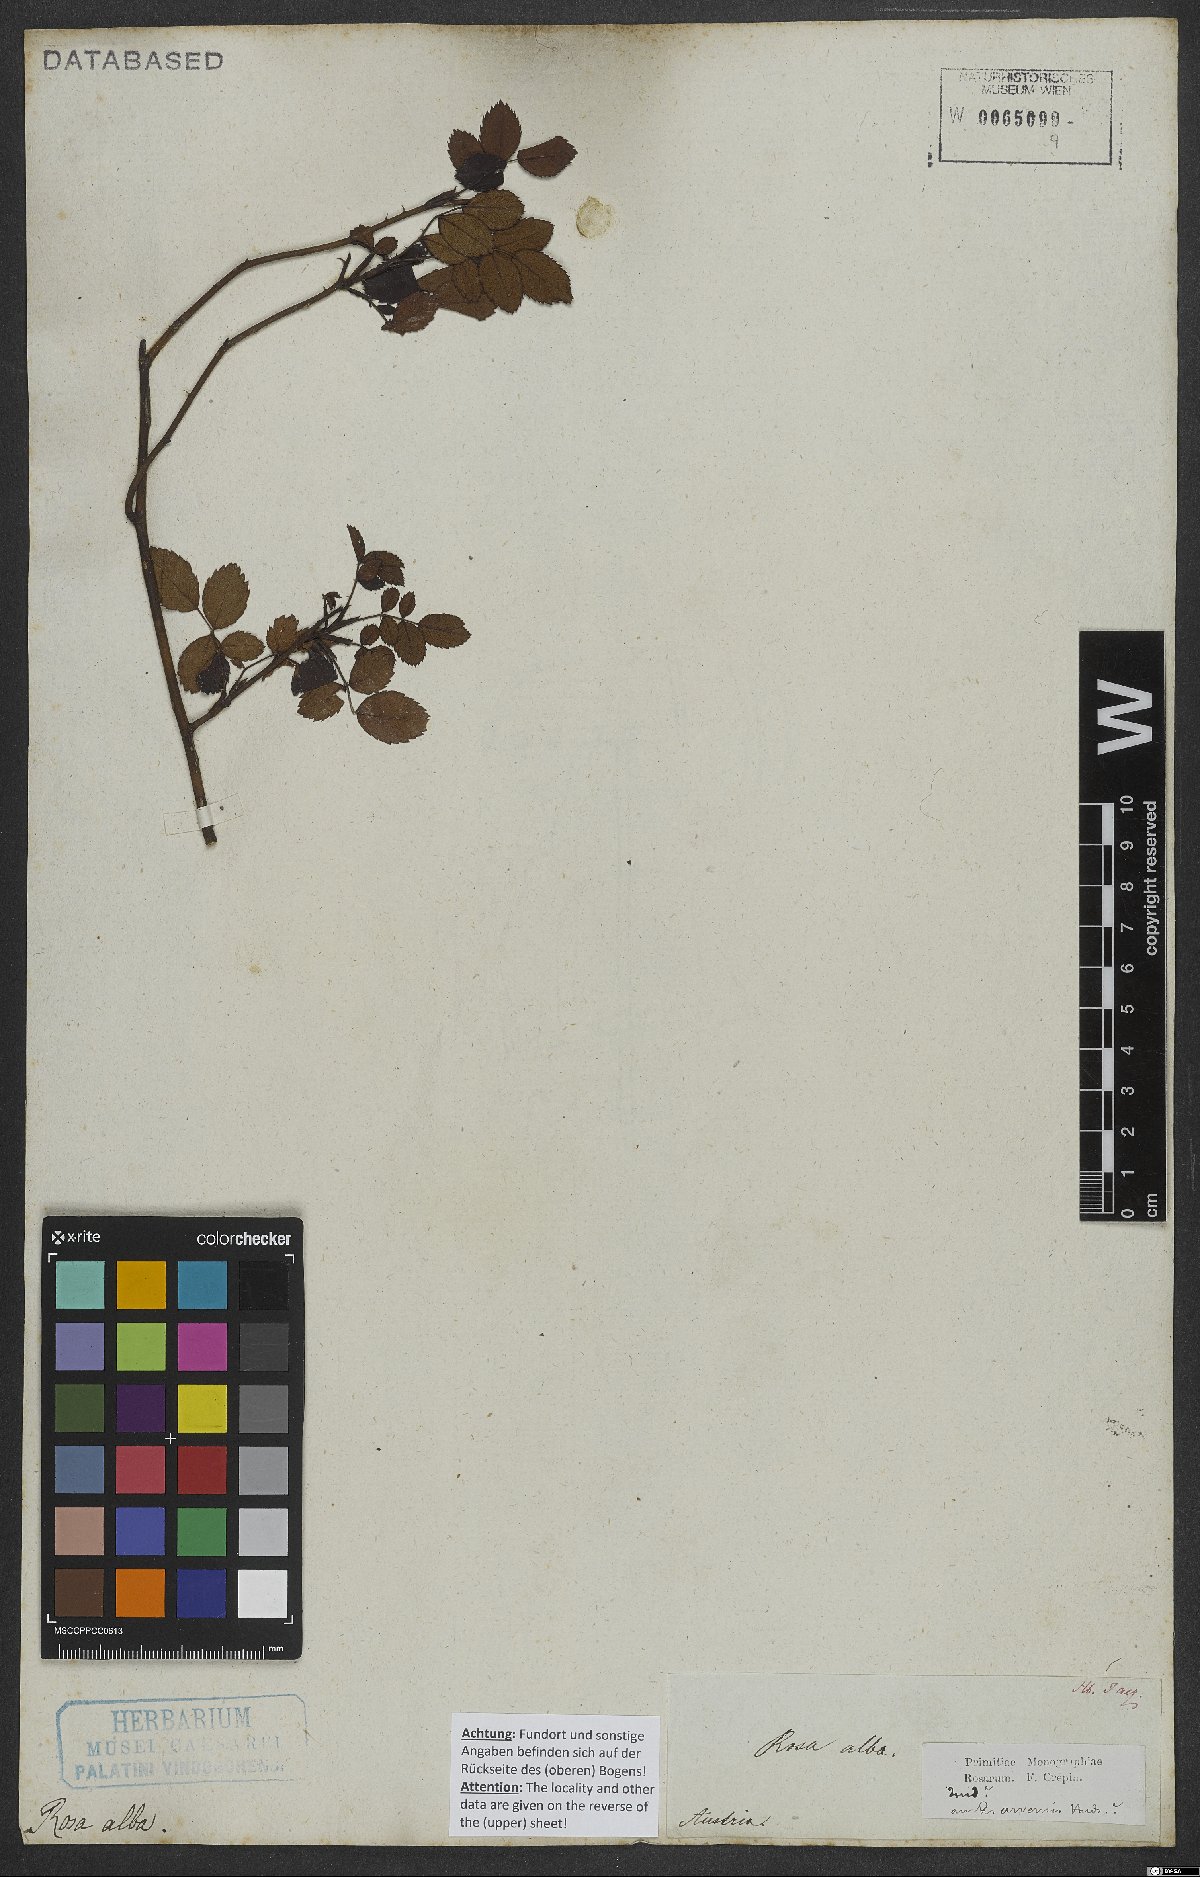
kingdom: Plantae
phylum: Tracheophyta
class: Magnoliopsida
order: Rosales
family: Rosaceae
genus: Rosa
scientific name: Rosa alba
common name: White rose
